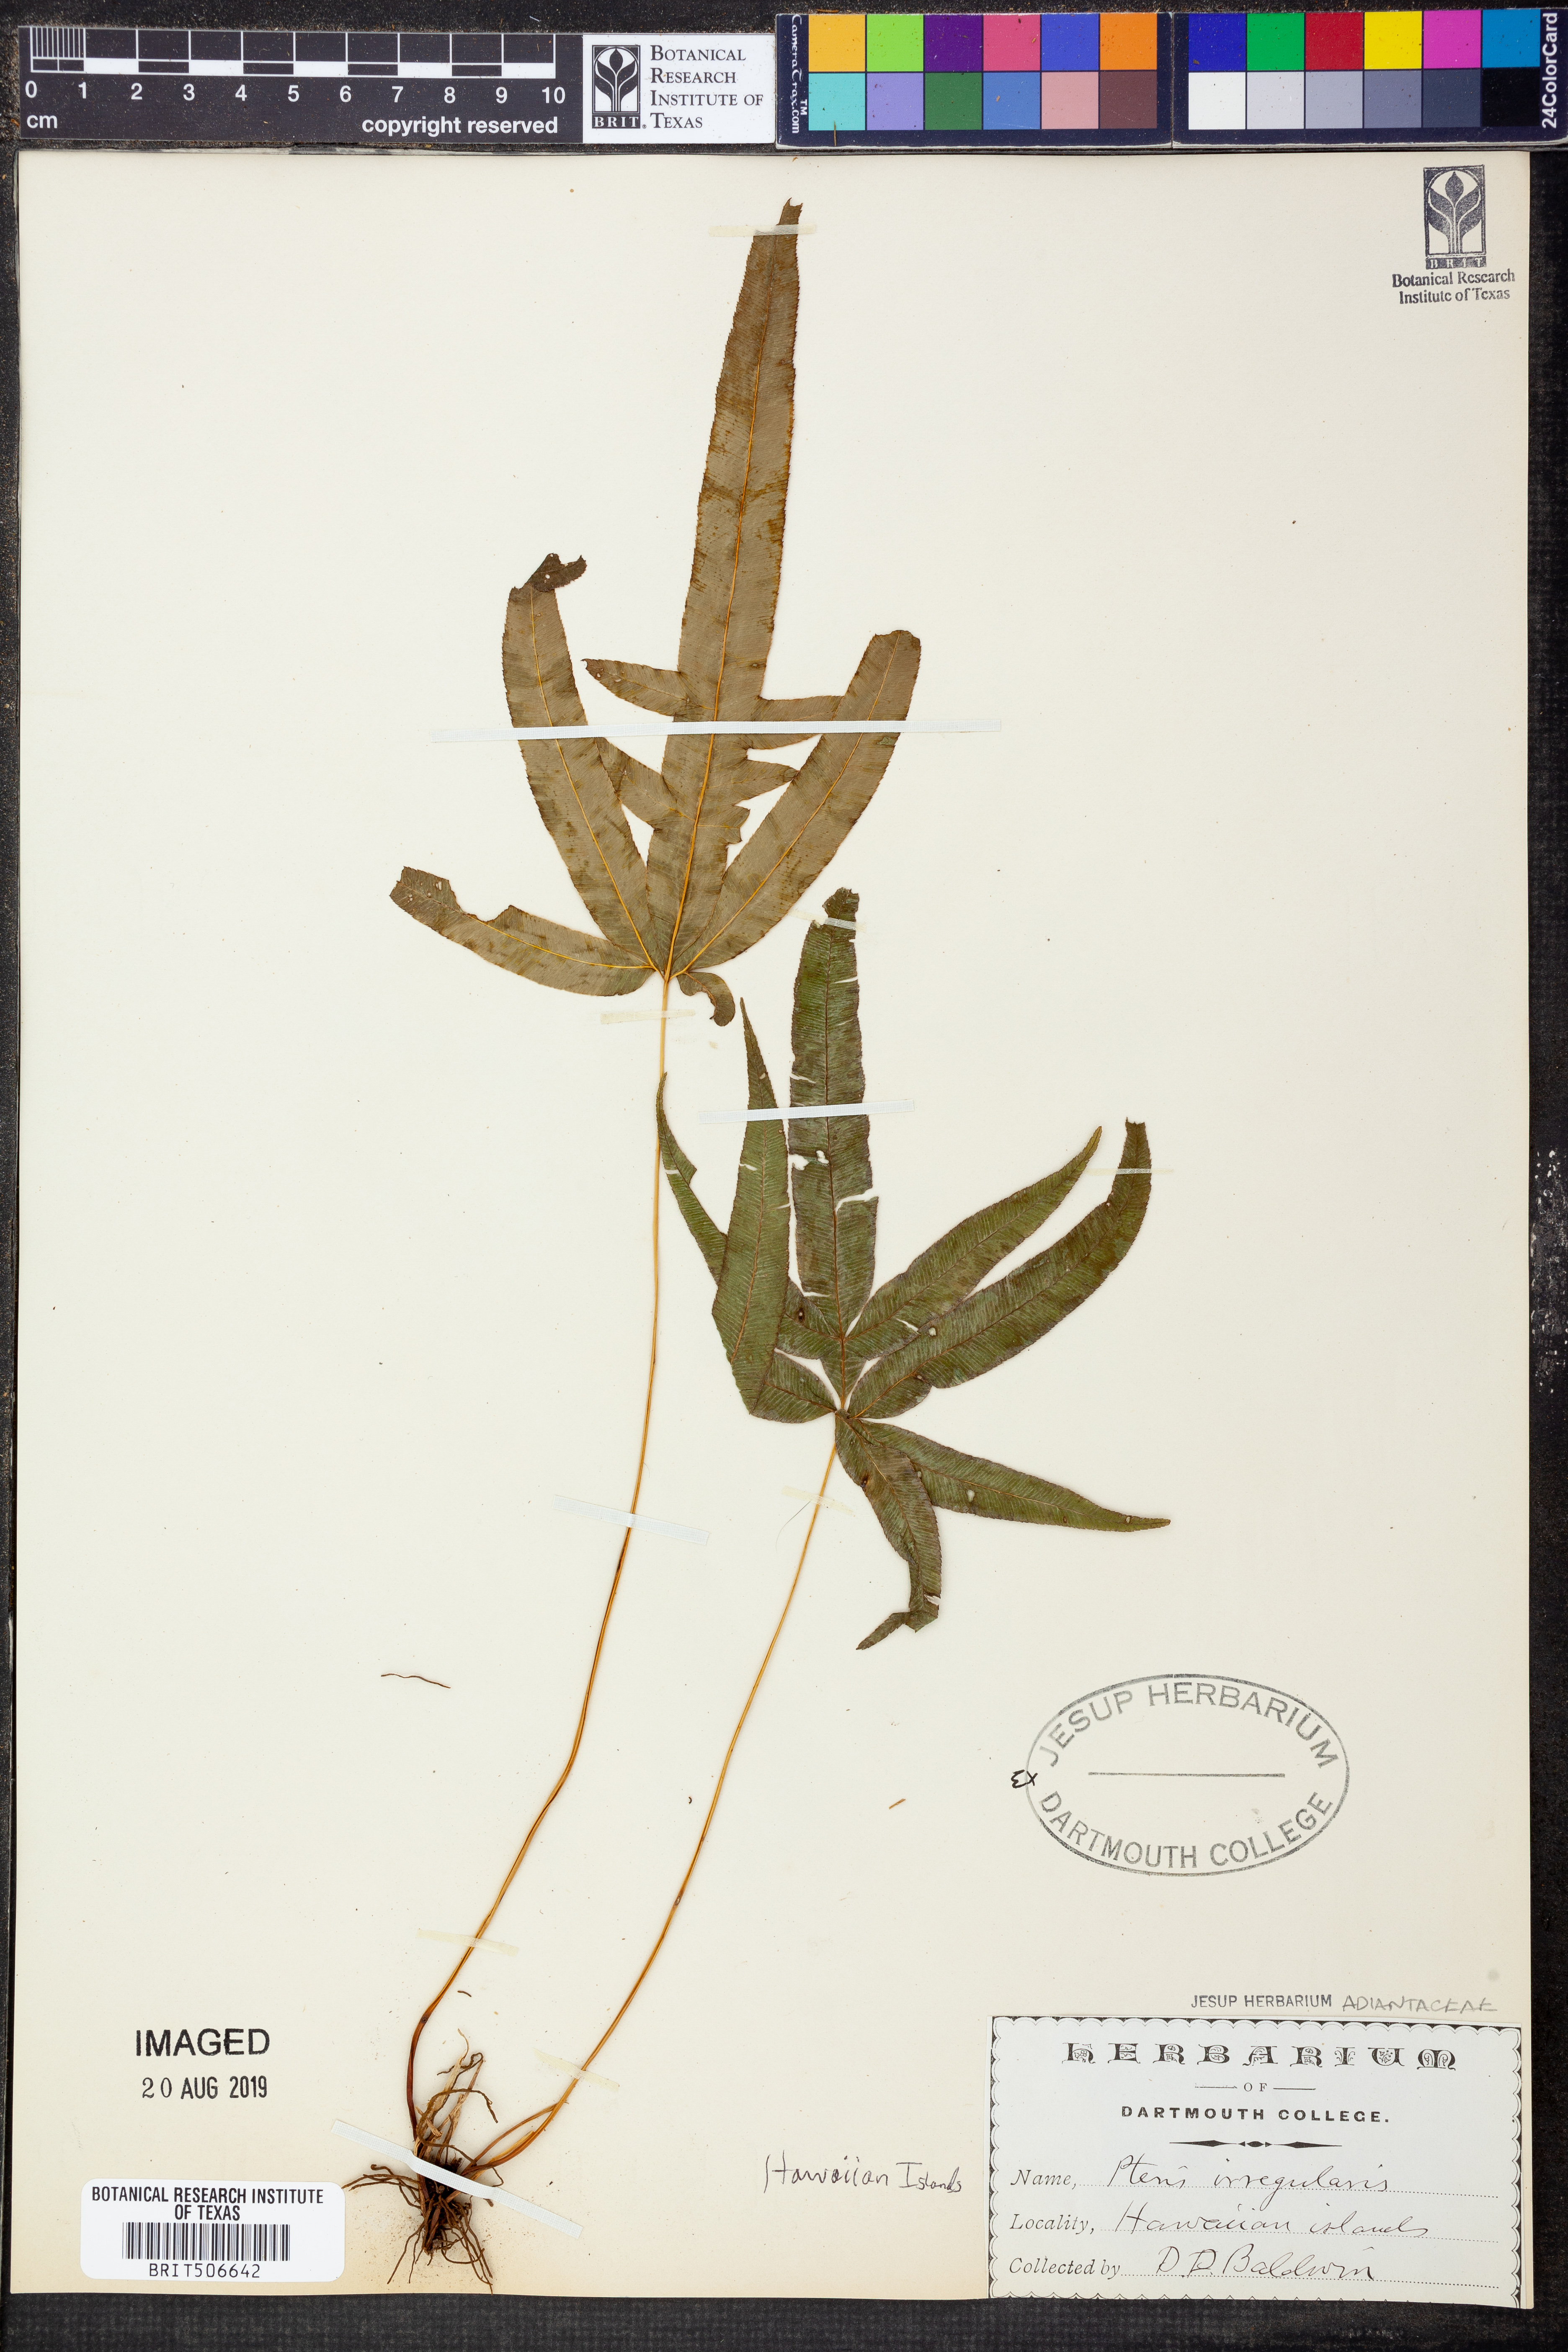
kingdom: Plantae
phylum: Tracheophyta
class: Polypodiopsida
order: Polypodiales
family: Pteridaceae
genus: Pteris
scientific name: Pteris irregularis
